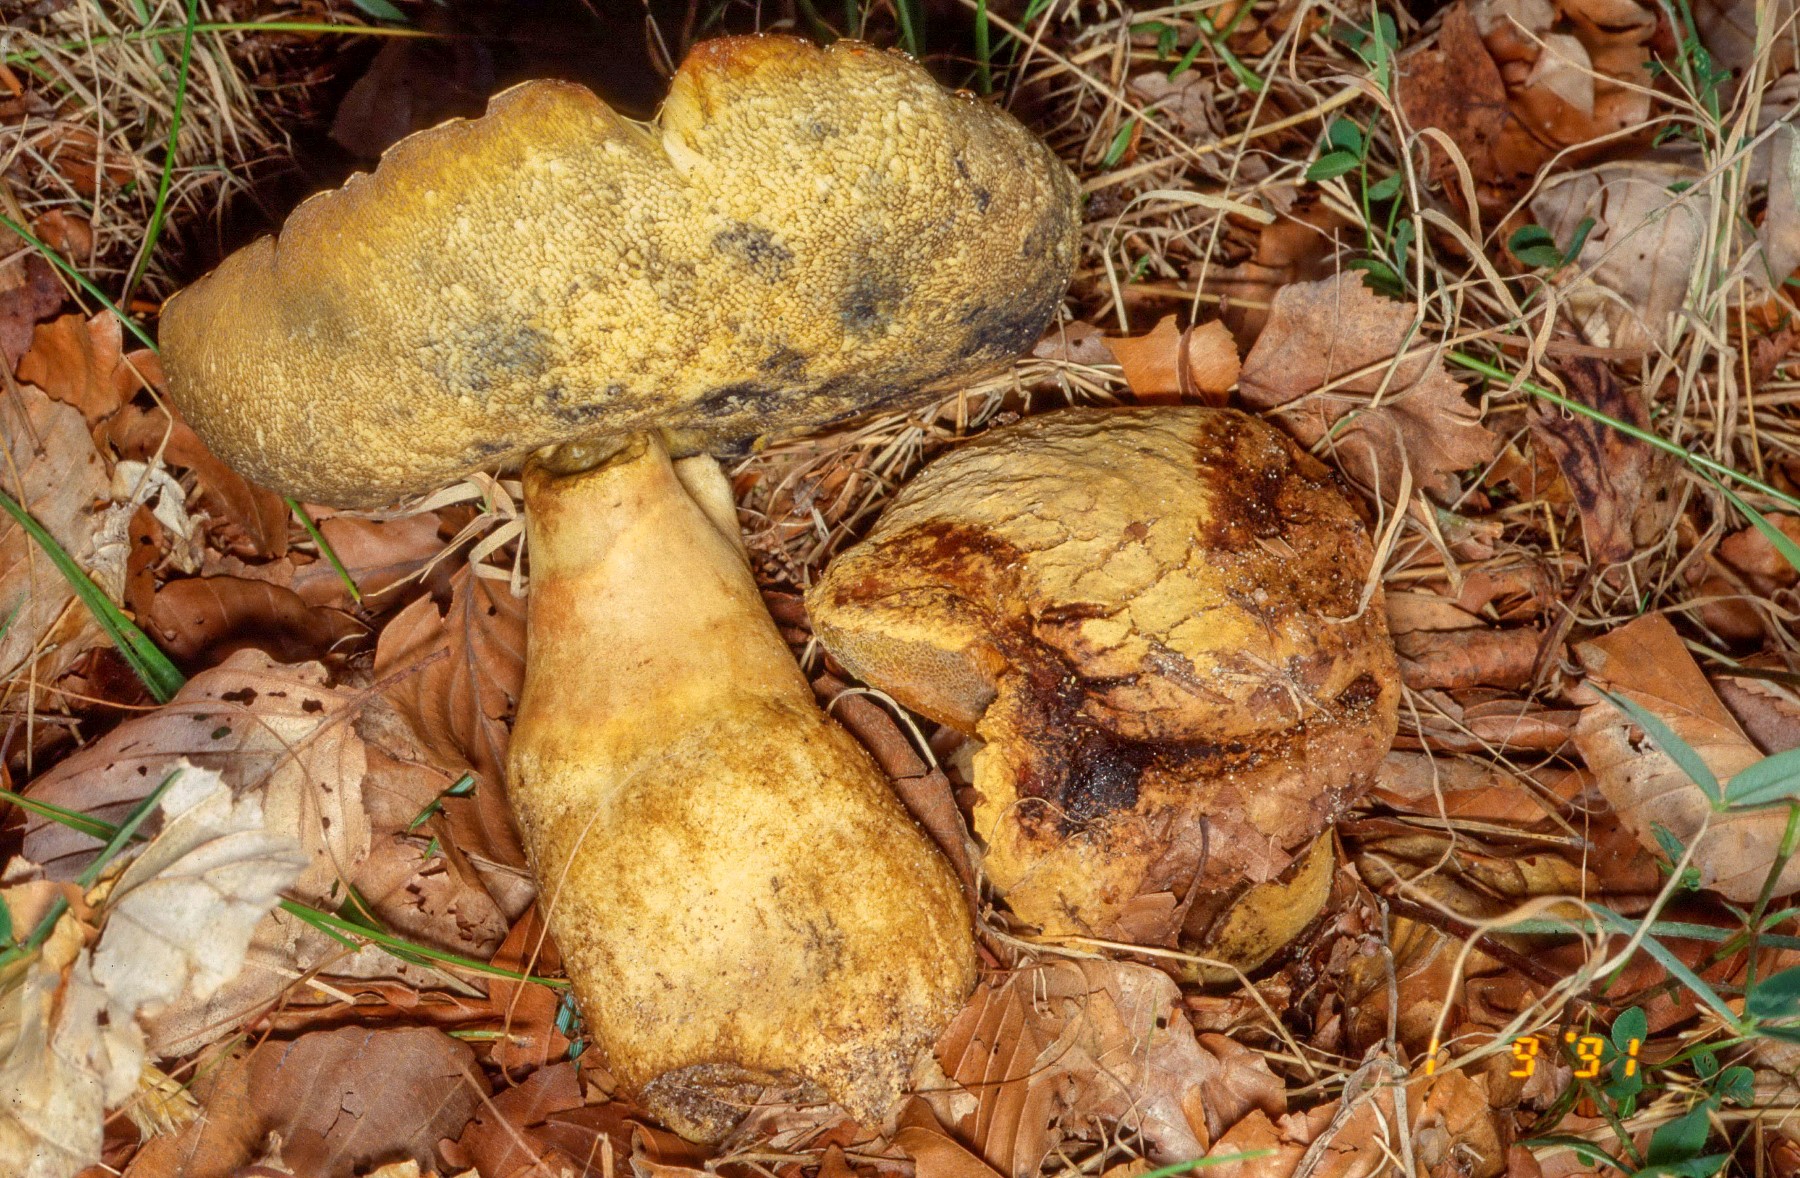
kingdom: Fungi
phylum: Basidiomycota
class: Agaricomycetes
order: Boletales
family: Gyroporaceae
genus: Gyroporus
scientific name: Gyroporus cyanescens
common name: blånende kammerrørhat
